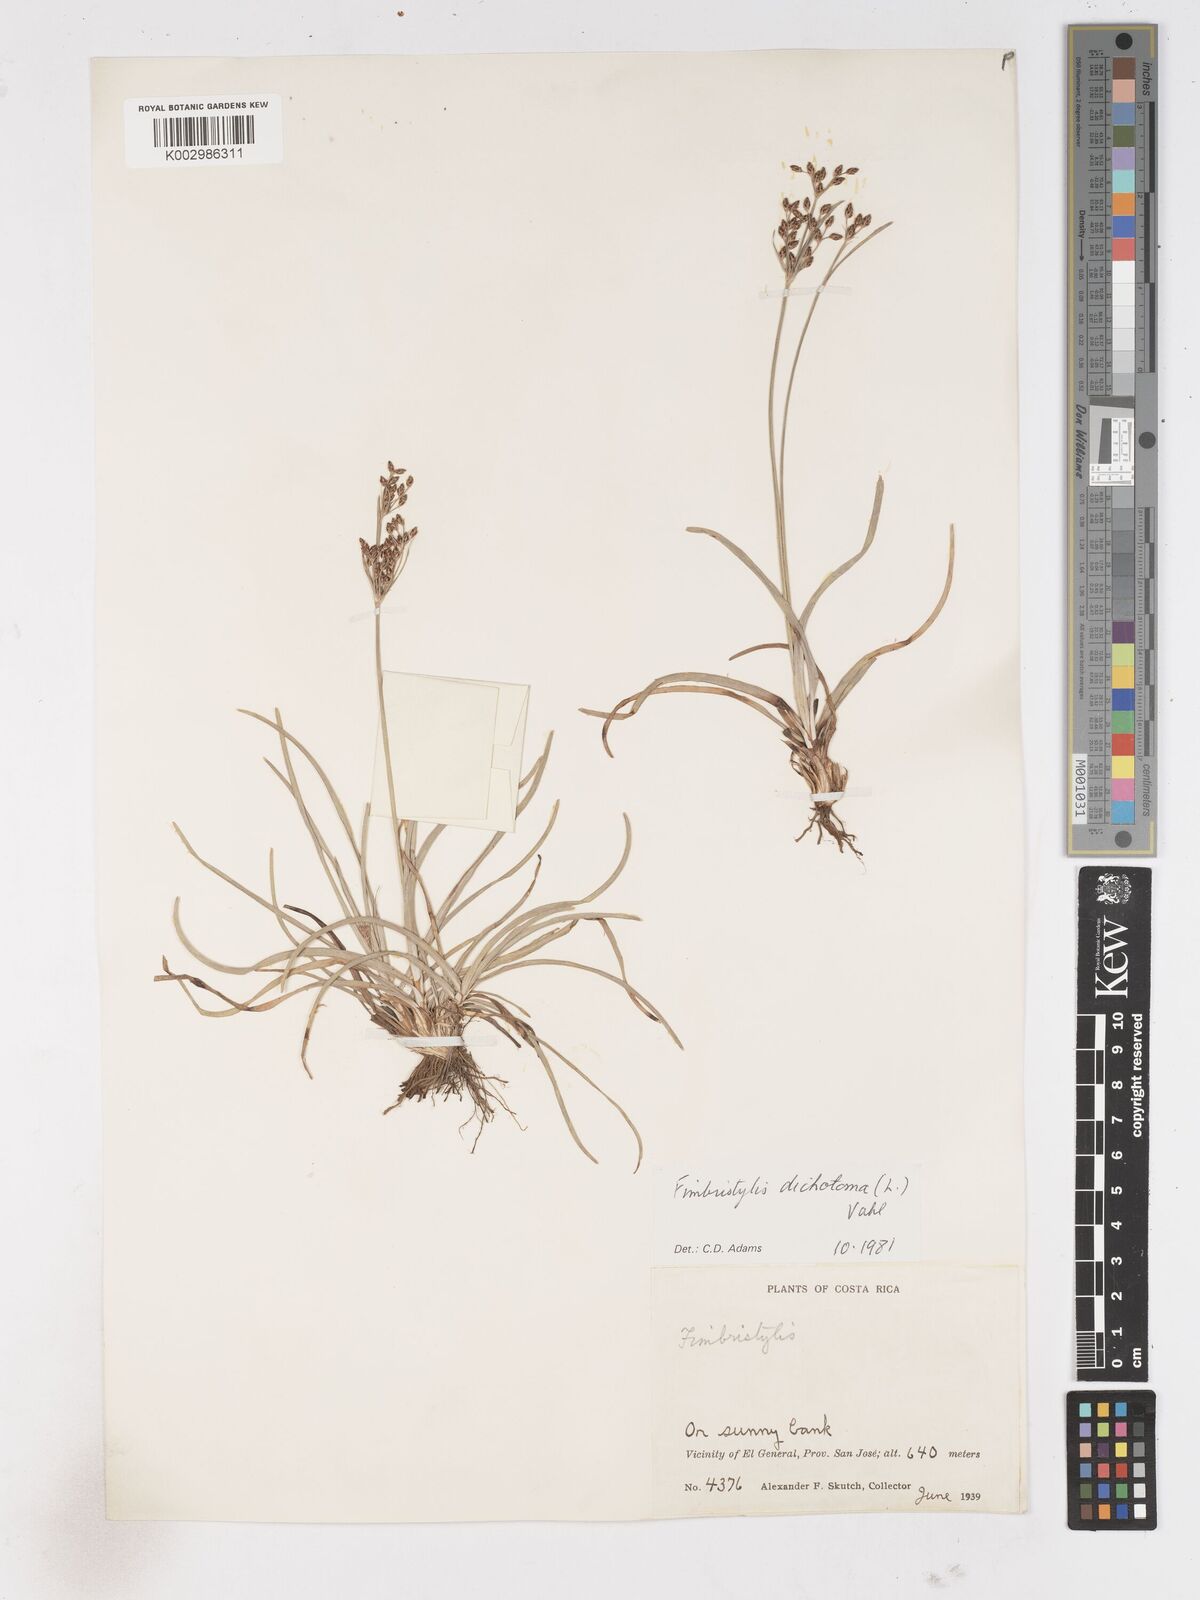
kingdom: Plantae
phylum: Tracheophyta
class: Liliopsida
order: Poales
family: Cyperaceae
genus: Fimbristylis
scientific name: Fimbristylis dichotoma
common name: Forked fimbry
